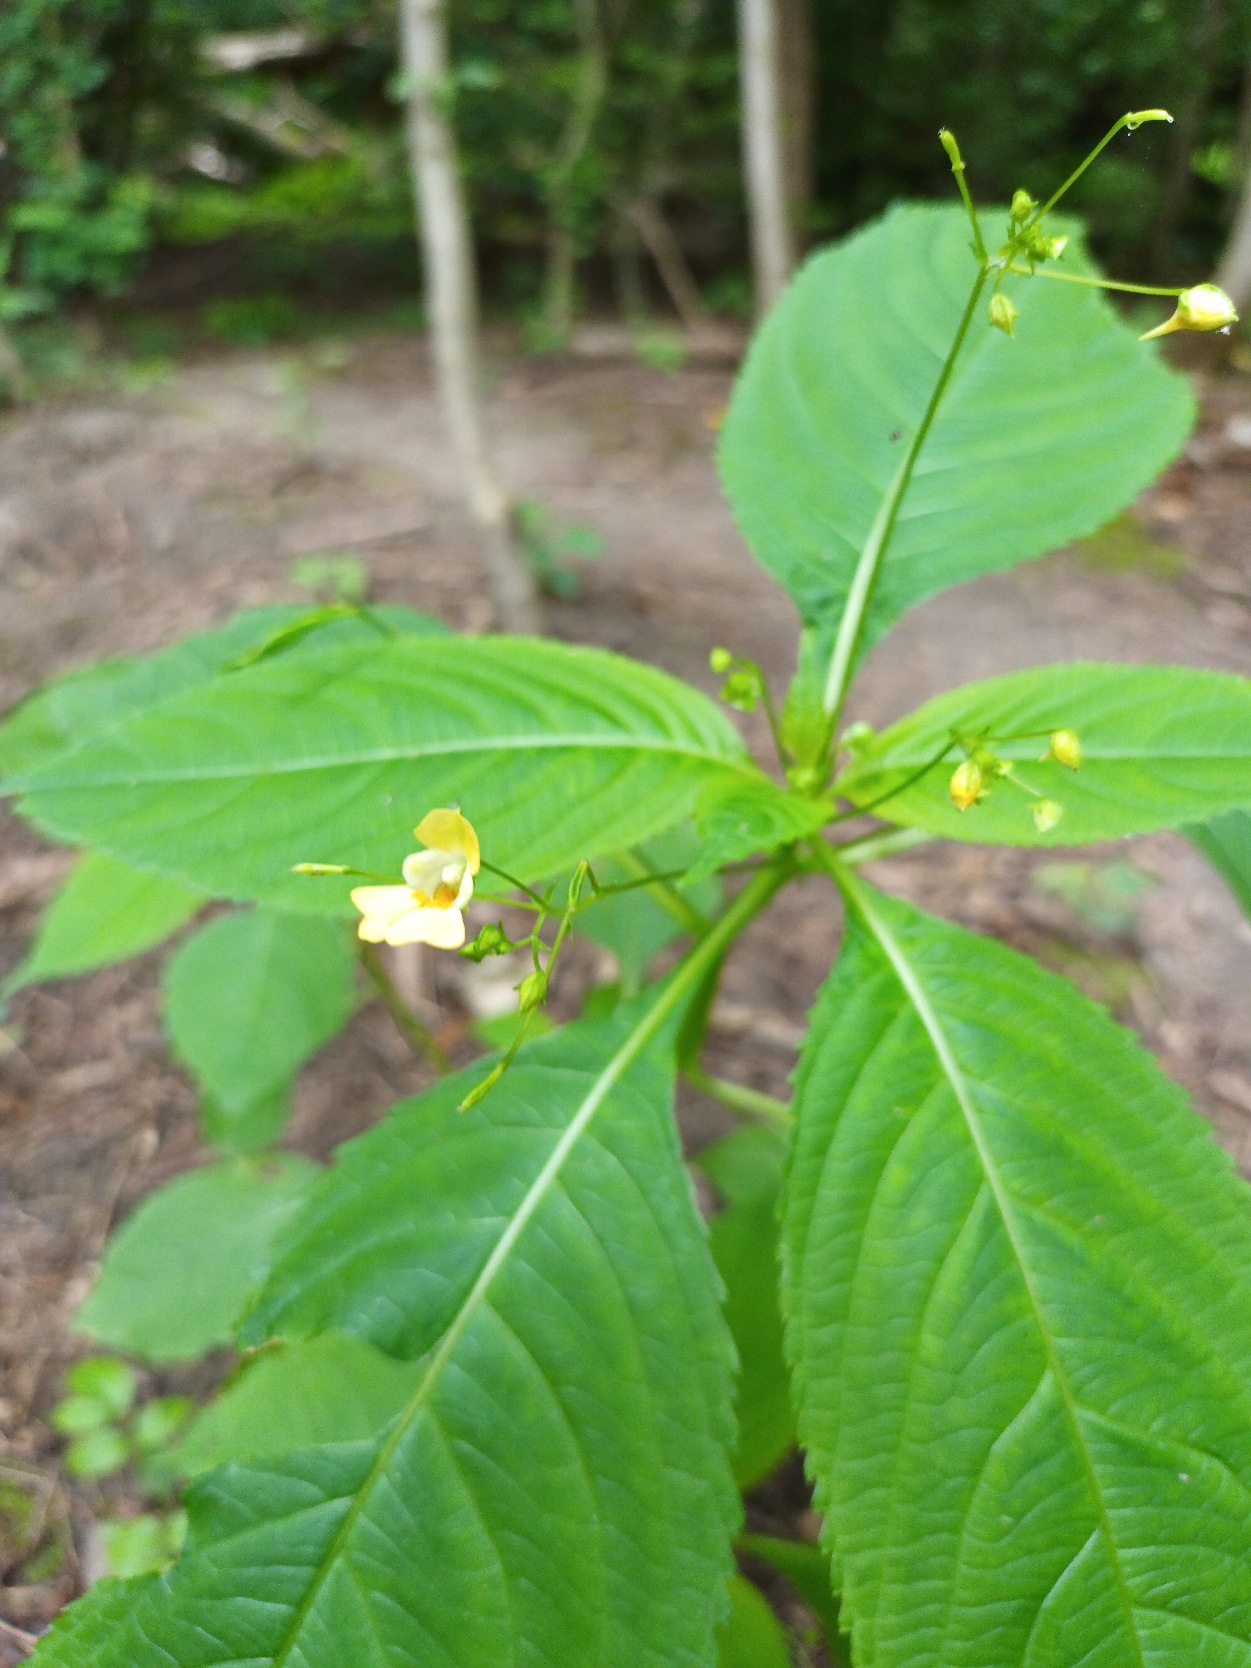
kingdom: Plantae
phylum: Tracheophyta
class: Magnoliopsida
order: Ericales
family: Balsaminaceae
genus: Impatiens
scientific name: Impatiens parviflora
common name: Småblomstret balsamin
